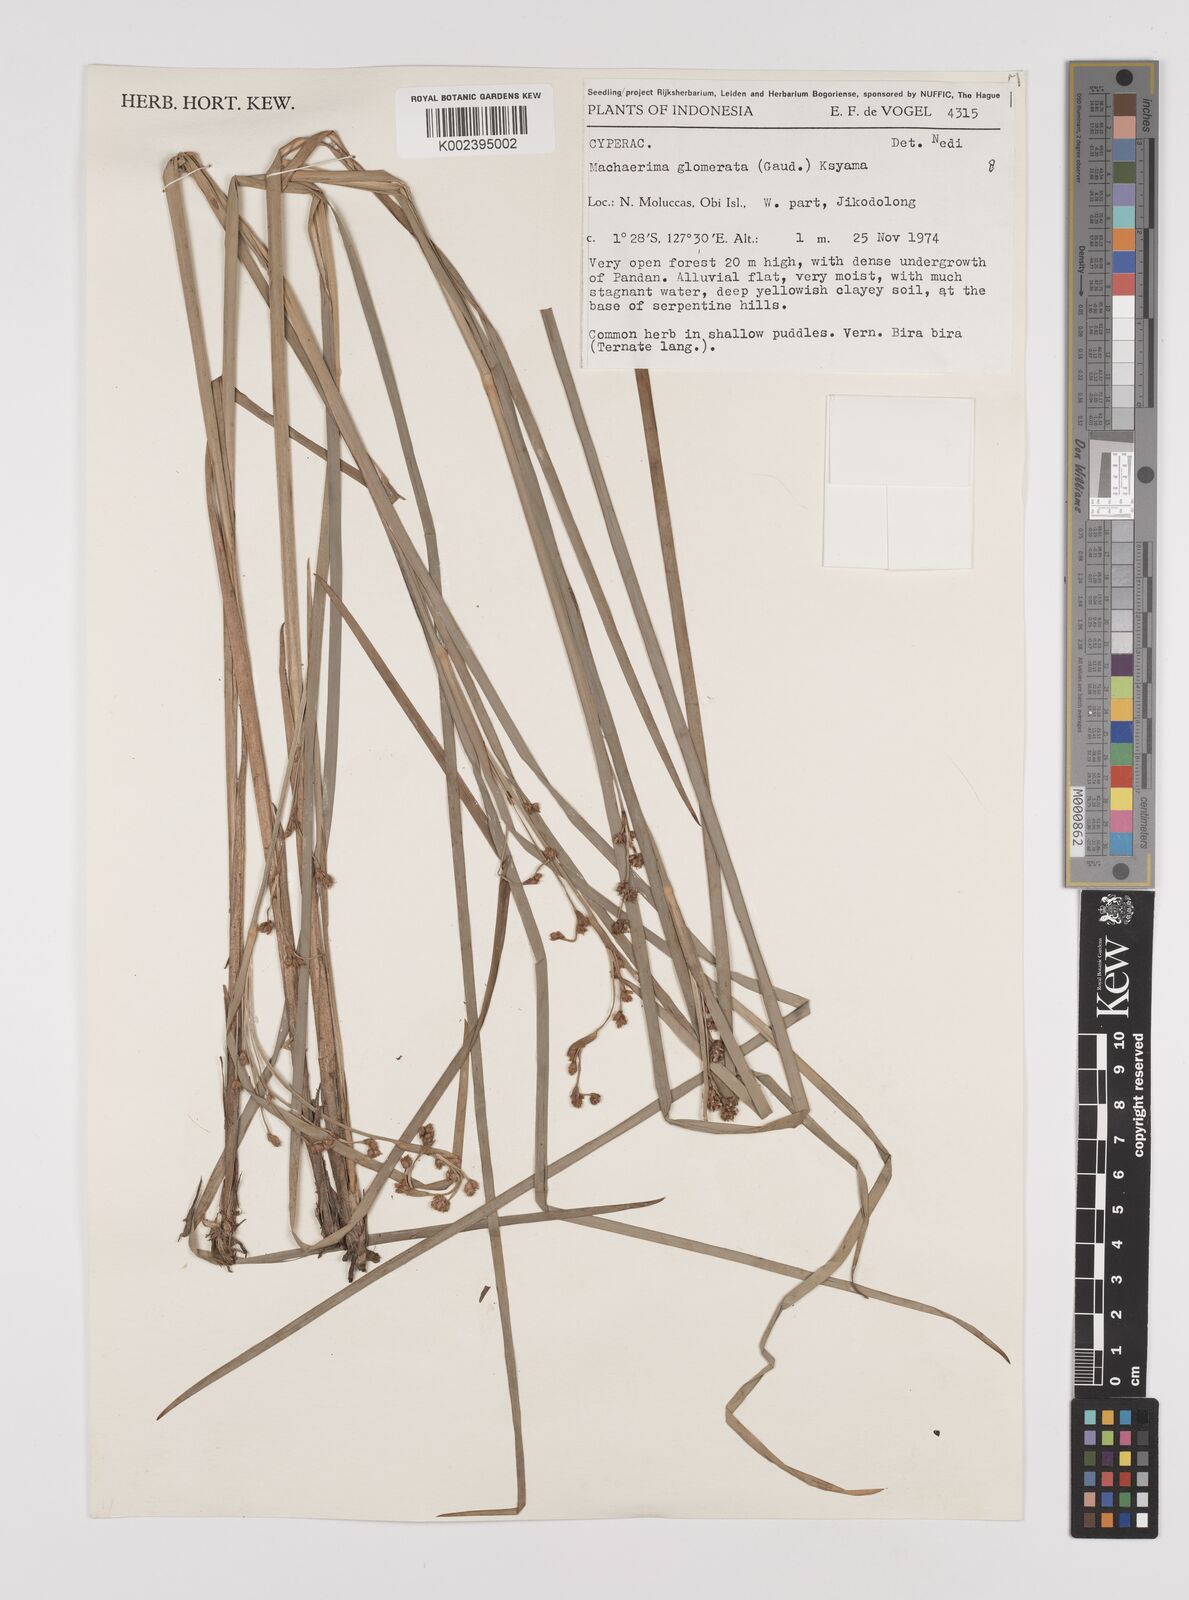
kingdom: Plantae
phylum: Tracheophyta
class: Liliopsida
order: Poales
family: Cyperaceae
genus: Machaerina
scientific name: Machaerina glomerata
